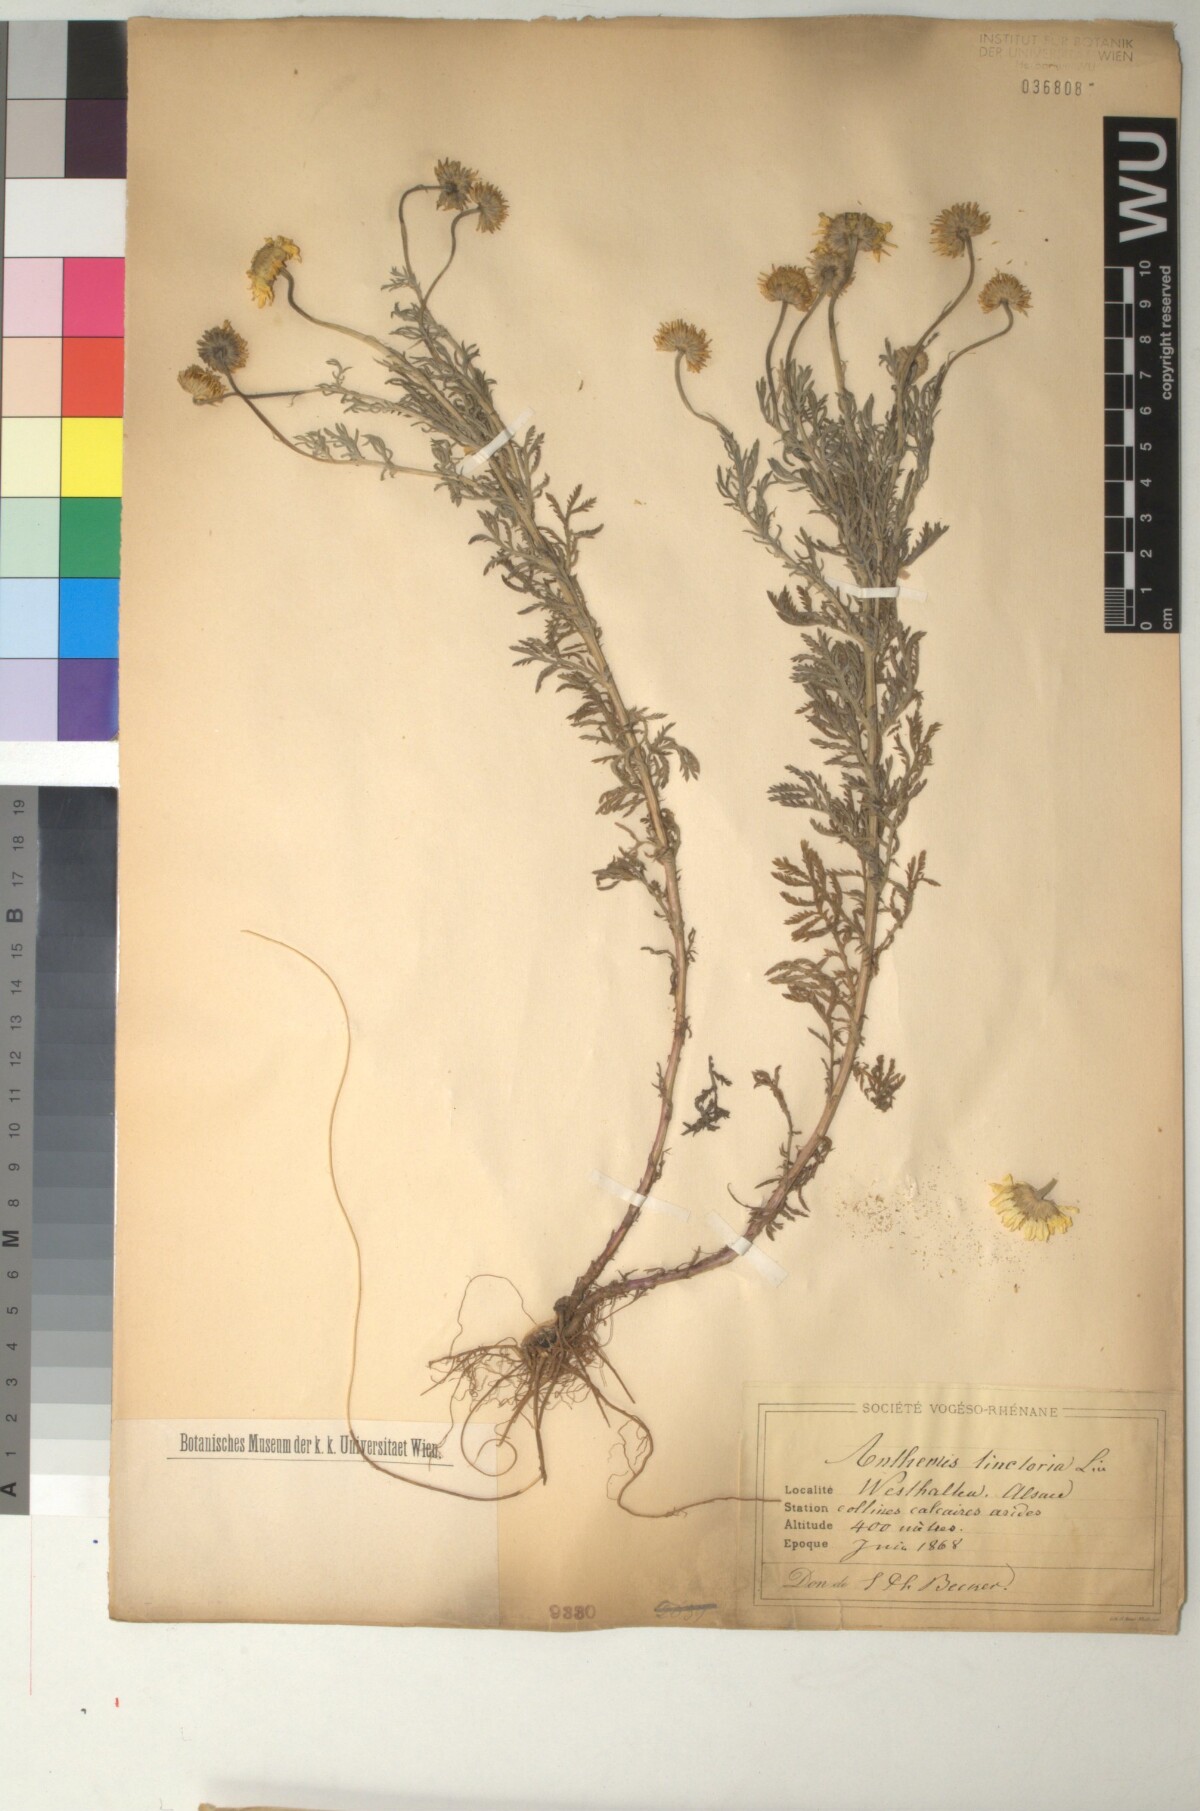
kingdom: Plantae
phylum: Tracheophyta
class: Magnoliopsida
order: Asterales
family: Asteraceae
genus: Cota
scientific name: Cota tinctoria
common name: Golden chamomile
